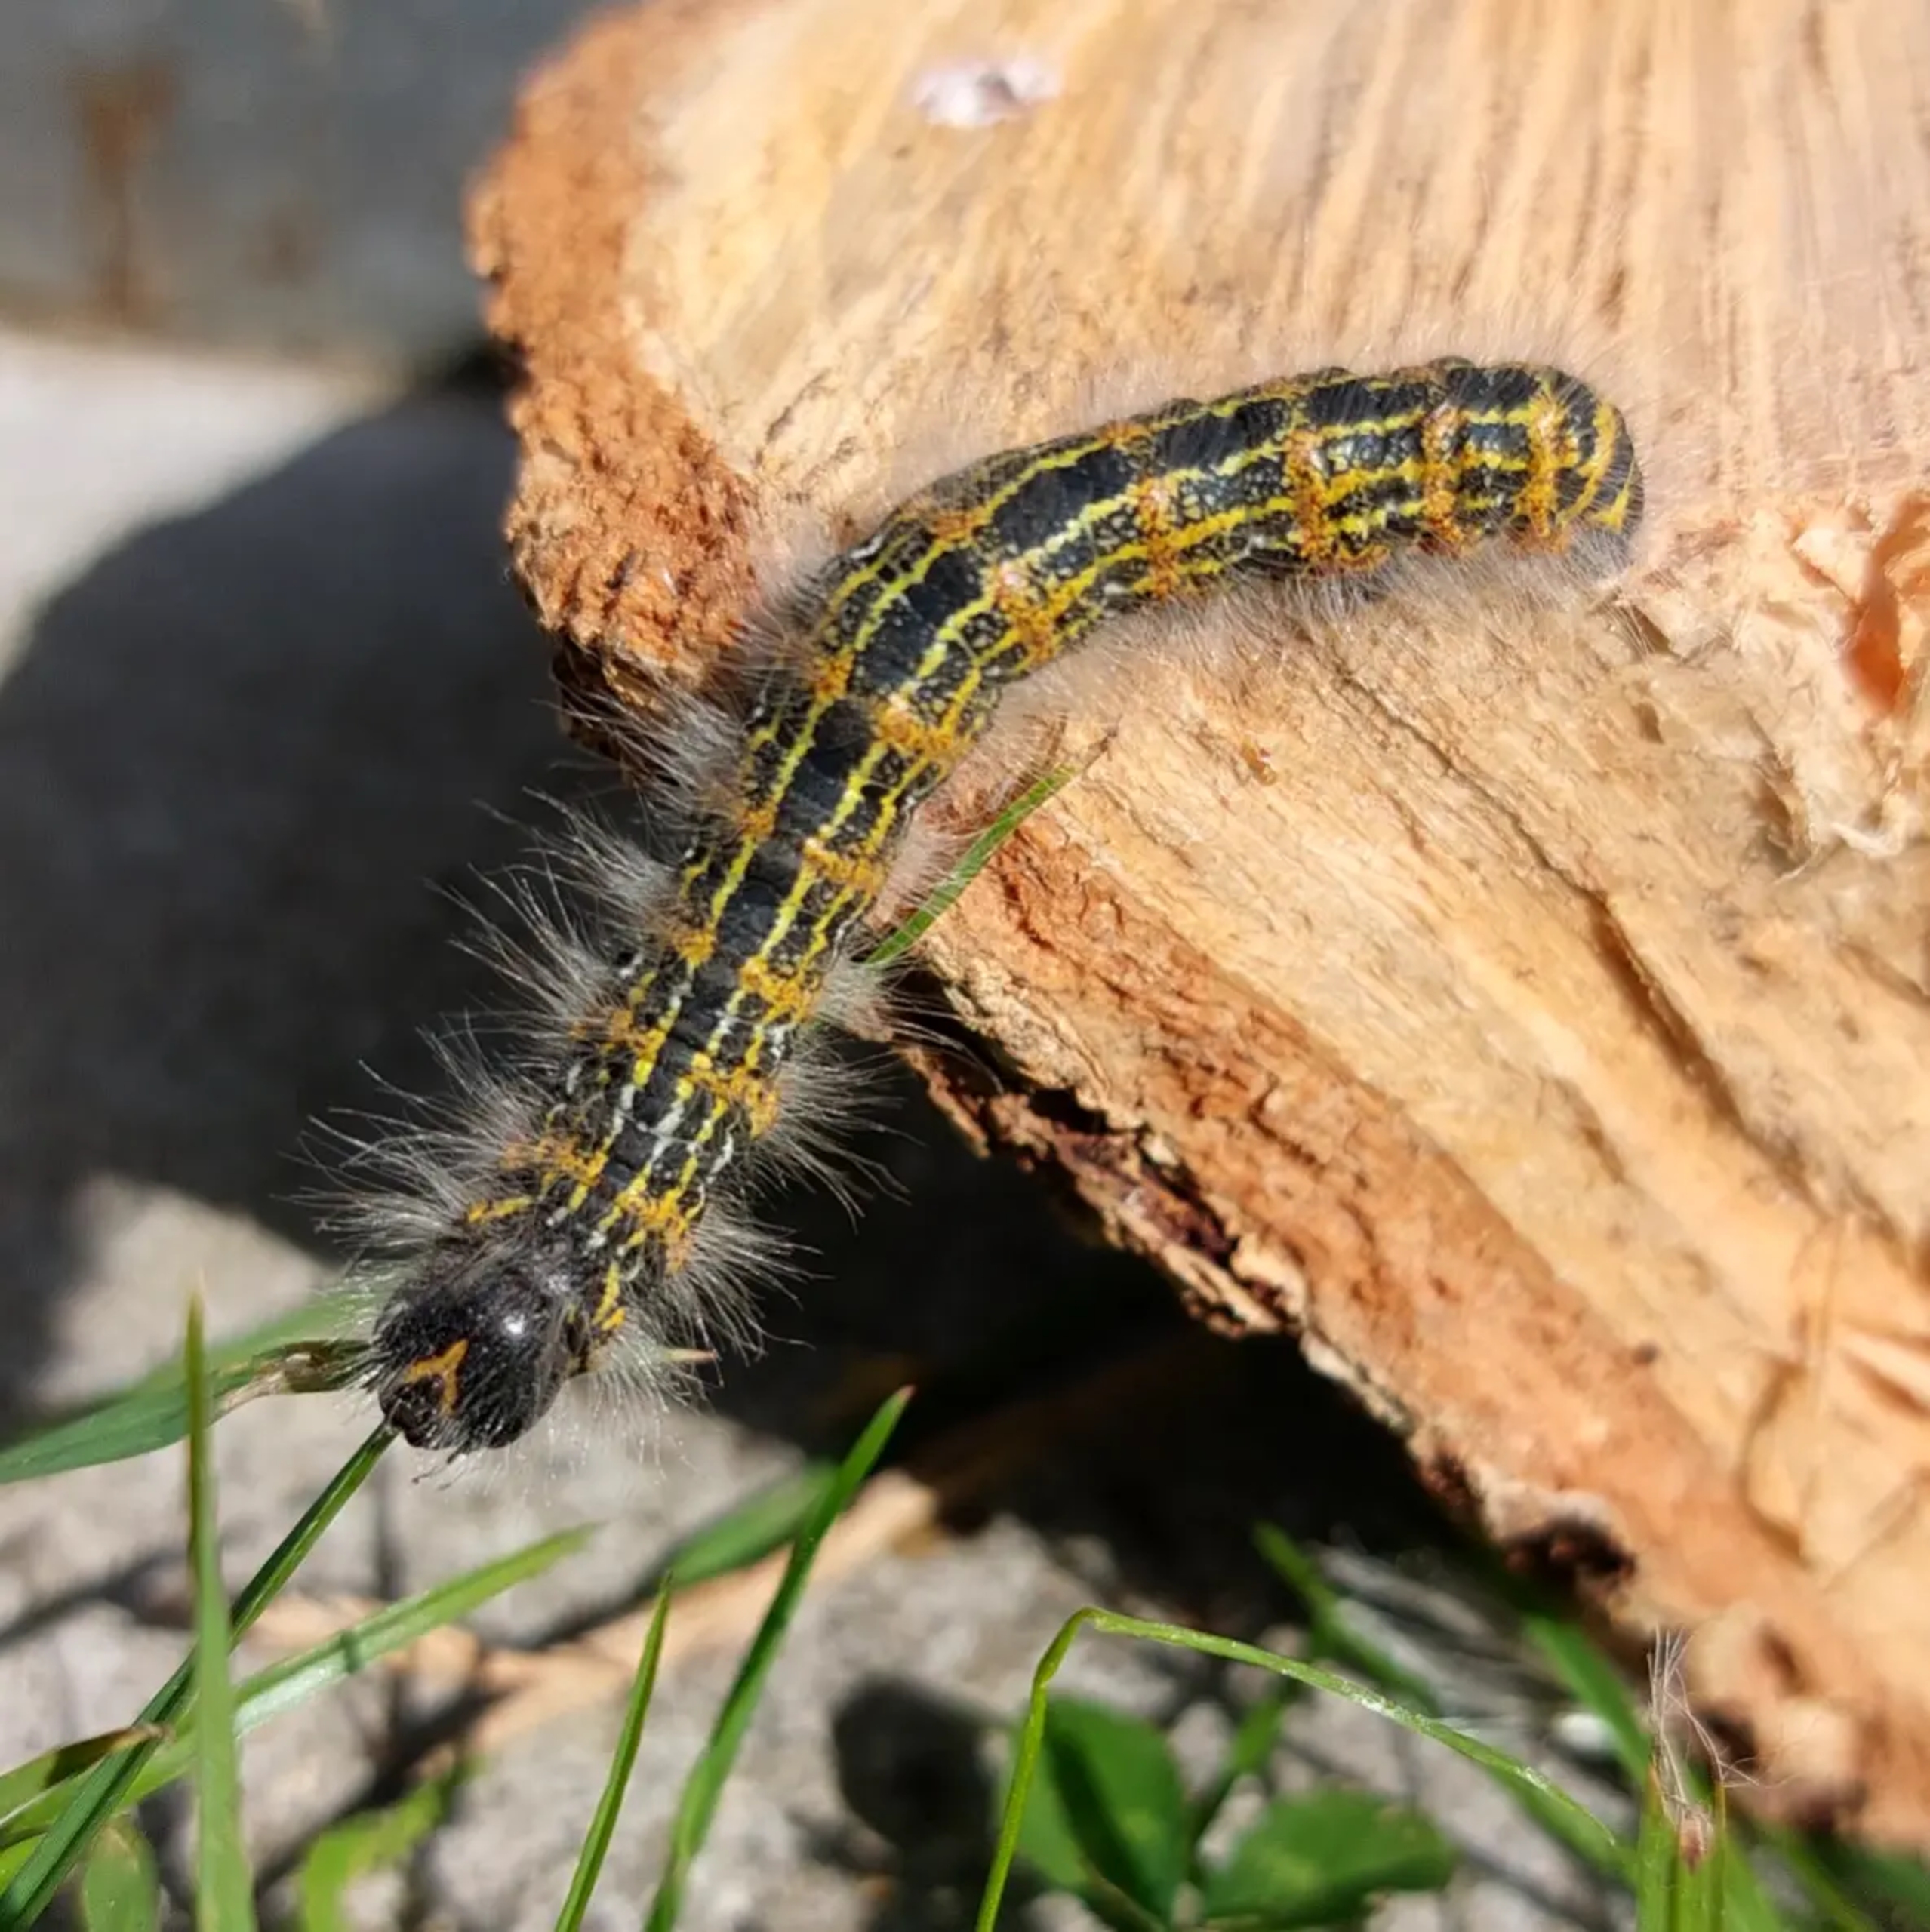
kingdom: Animalia
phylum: Arthropoda
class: Insecta
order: Lepidoptera
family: Notodontidae
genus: Phalera
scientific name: Phalera bucephala
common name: Måneplet
